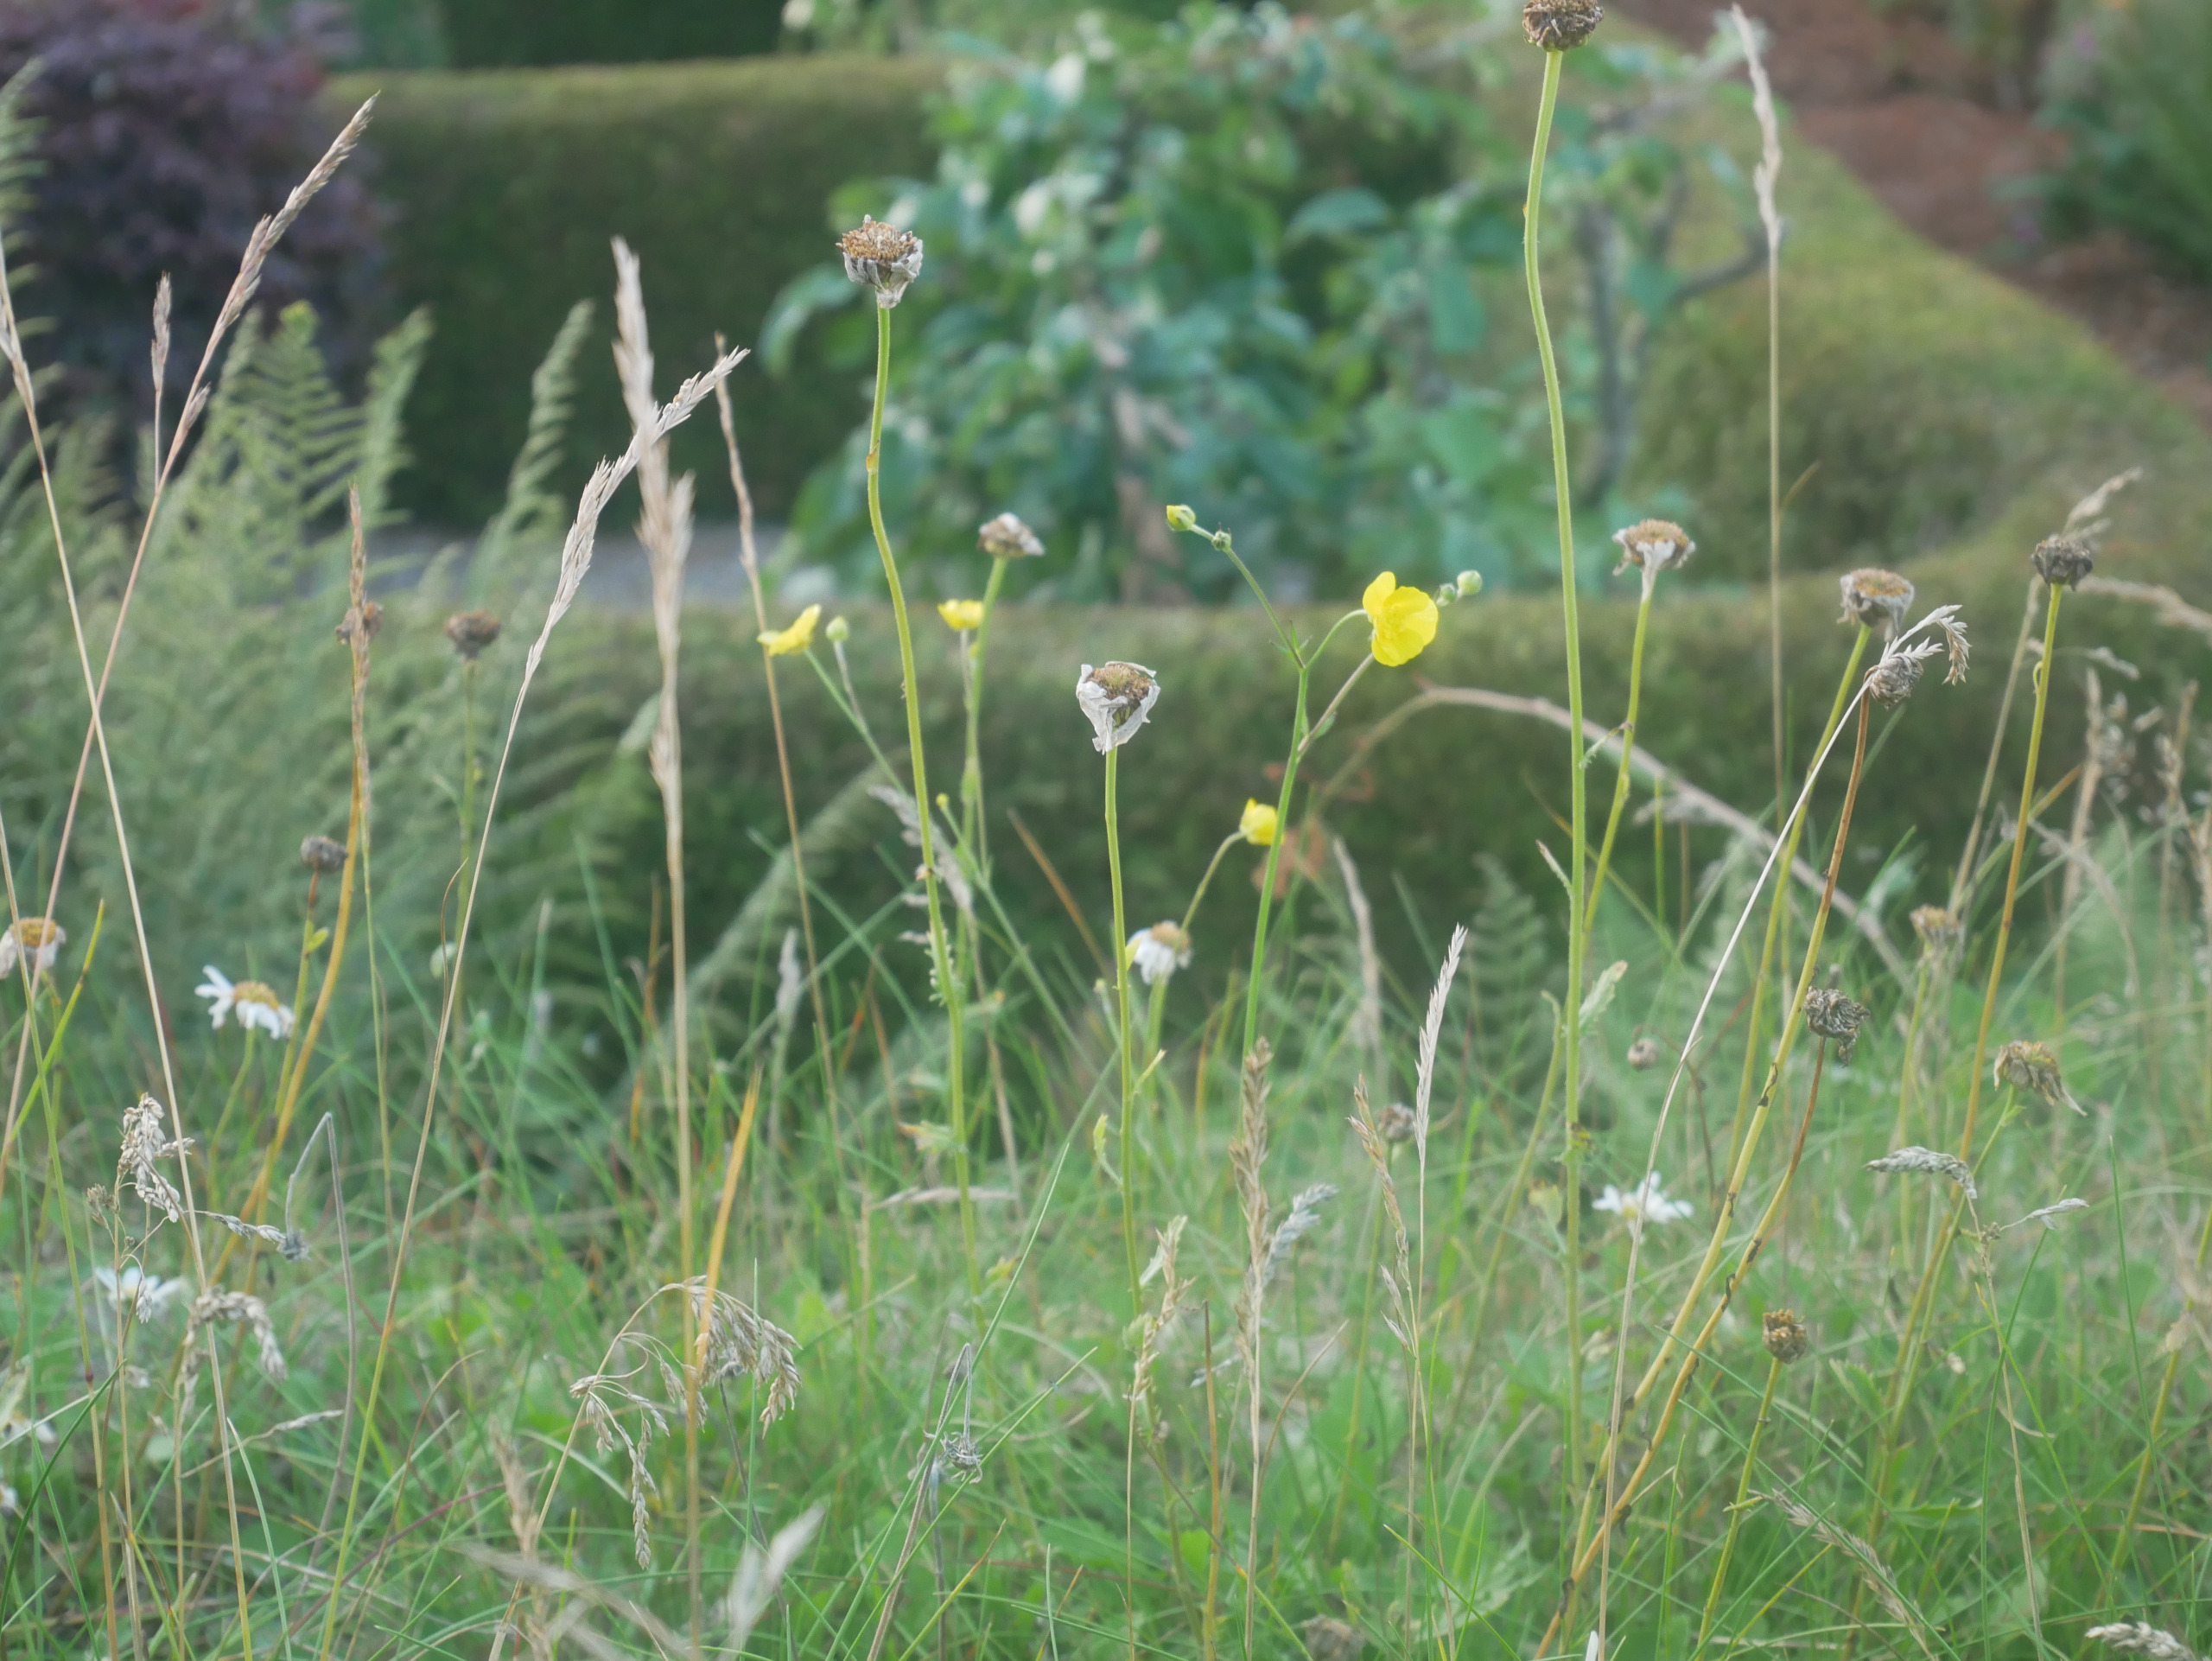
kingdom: Plantae
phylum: Tracheophyta
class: Magnoliopsida
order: Ranunculales
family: Ranunculaceae
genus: Ranunculus
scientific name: Ranunculus acris
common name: Bidende ranunkel
